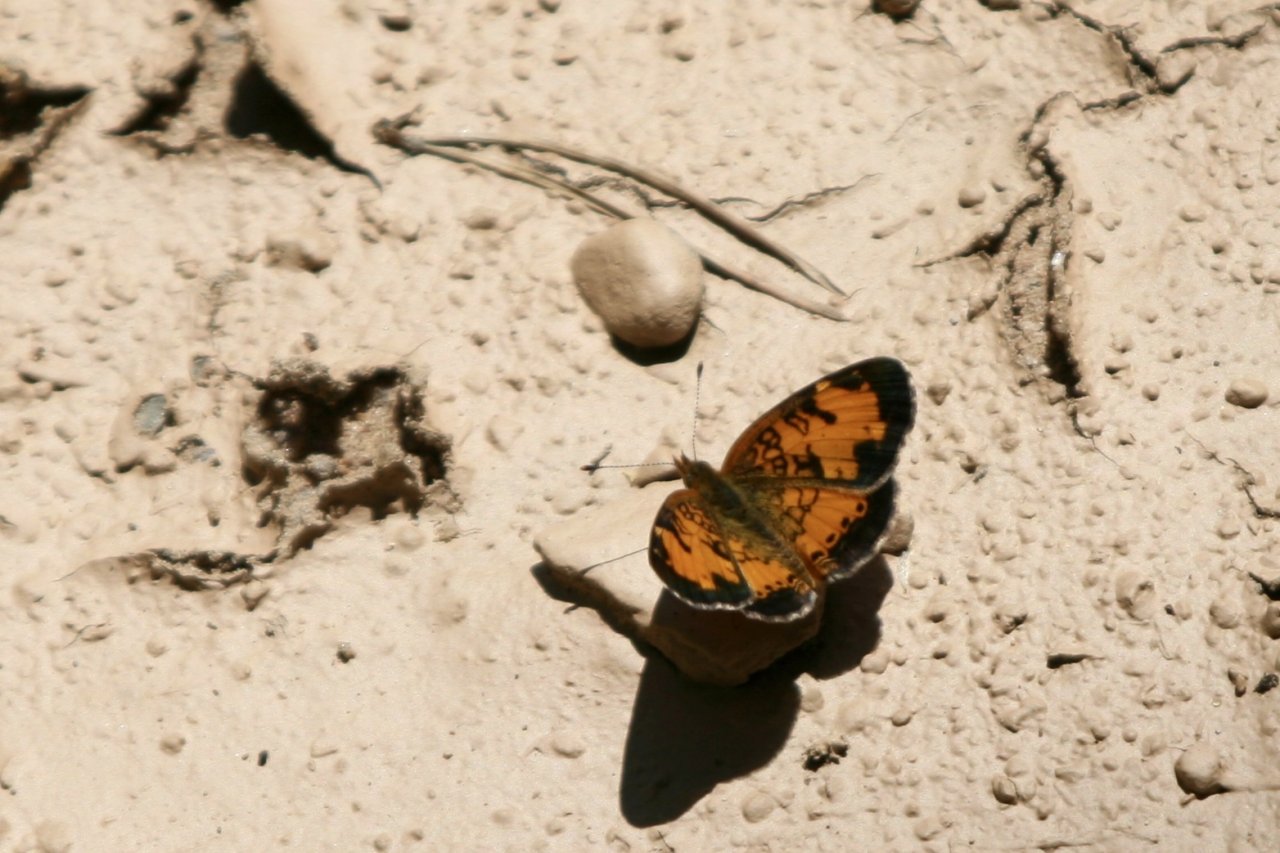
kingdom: Animalia
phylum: Arthropoda
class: Insecta
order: Lepidoptera
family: Nymphalidae
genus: Phyciodes
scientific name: Phyciodes tharos
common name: Northern Crescent
